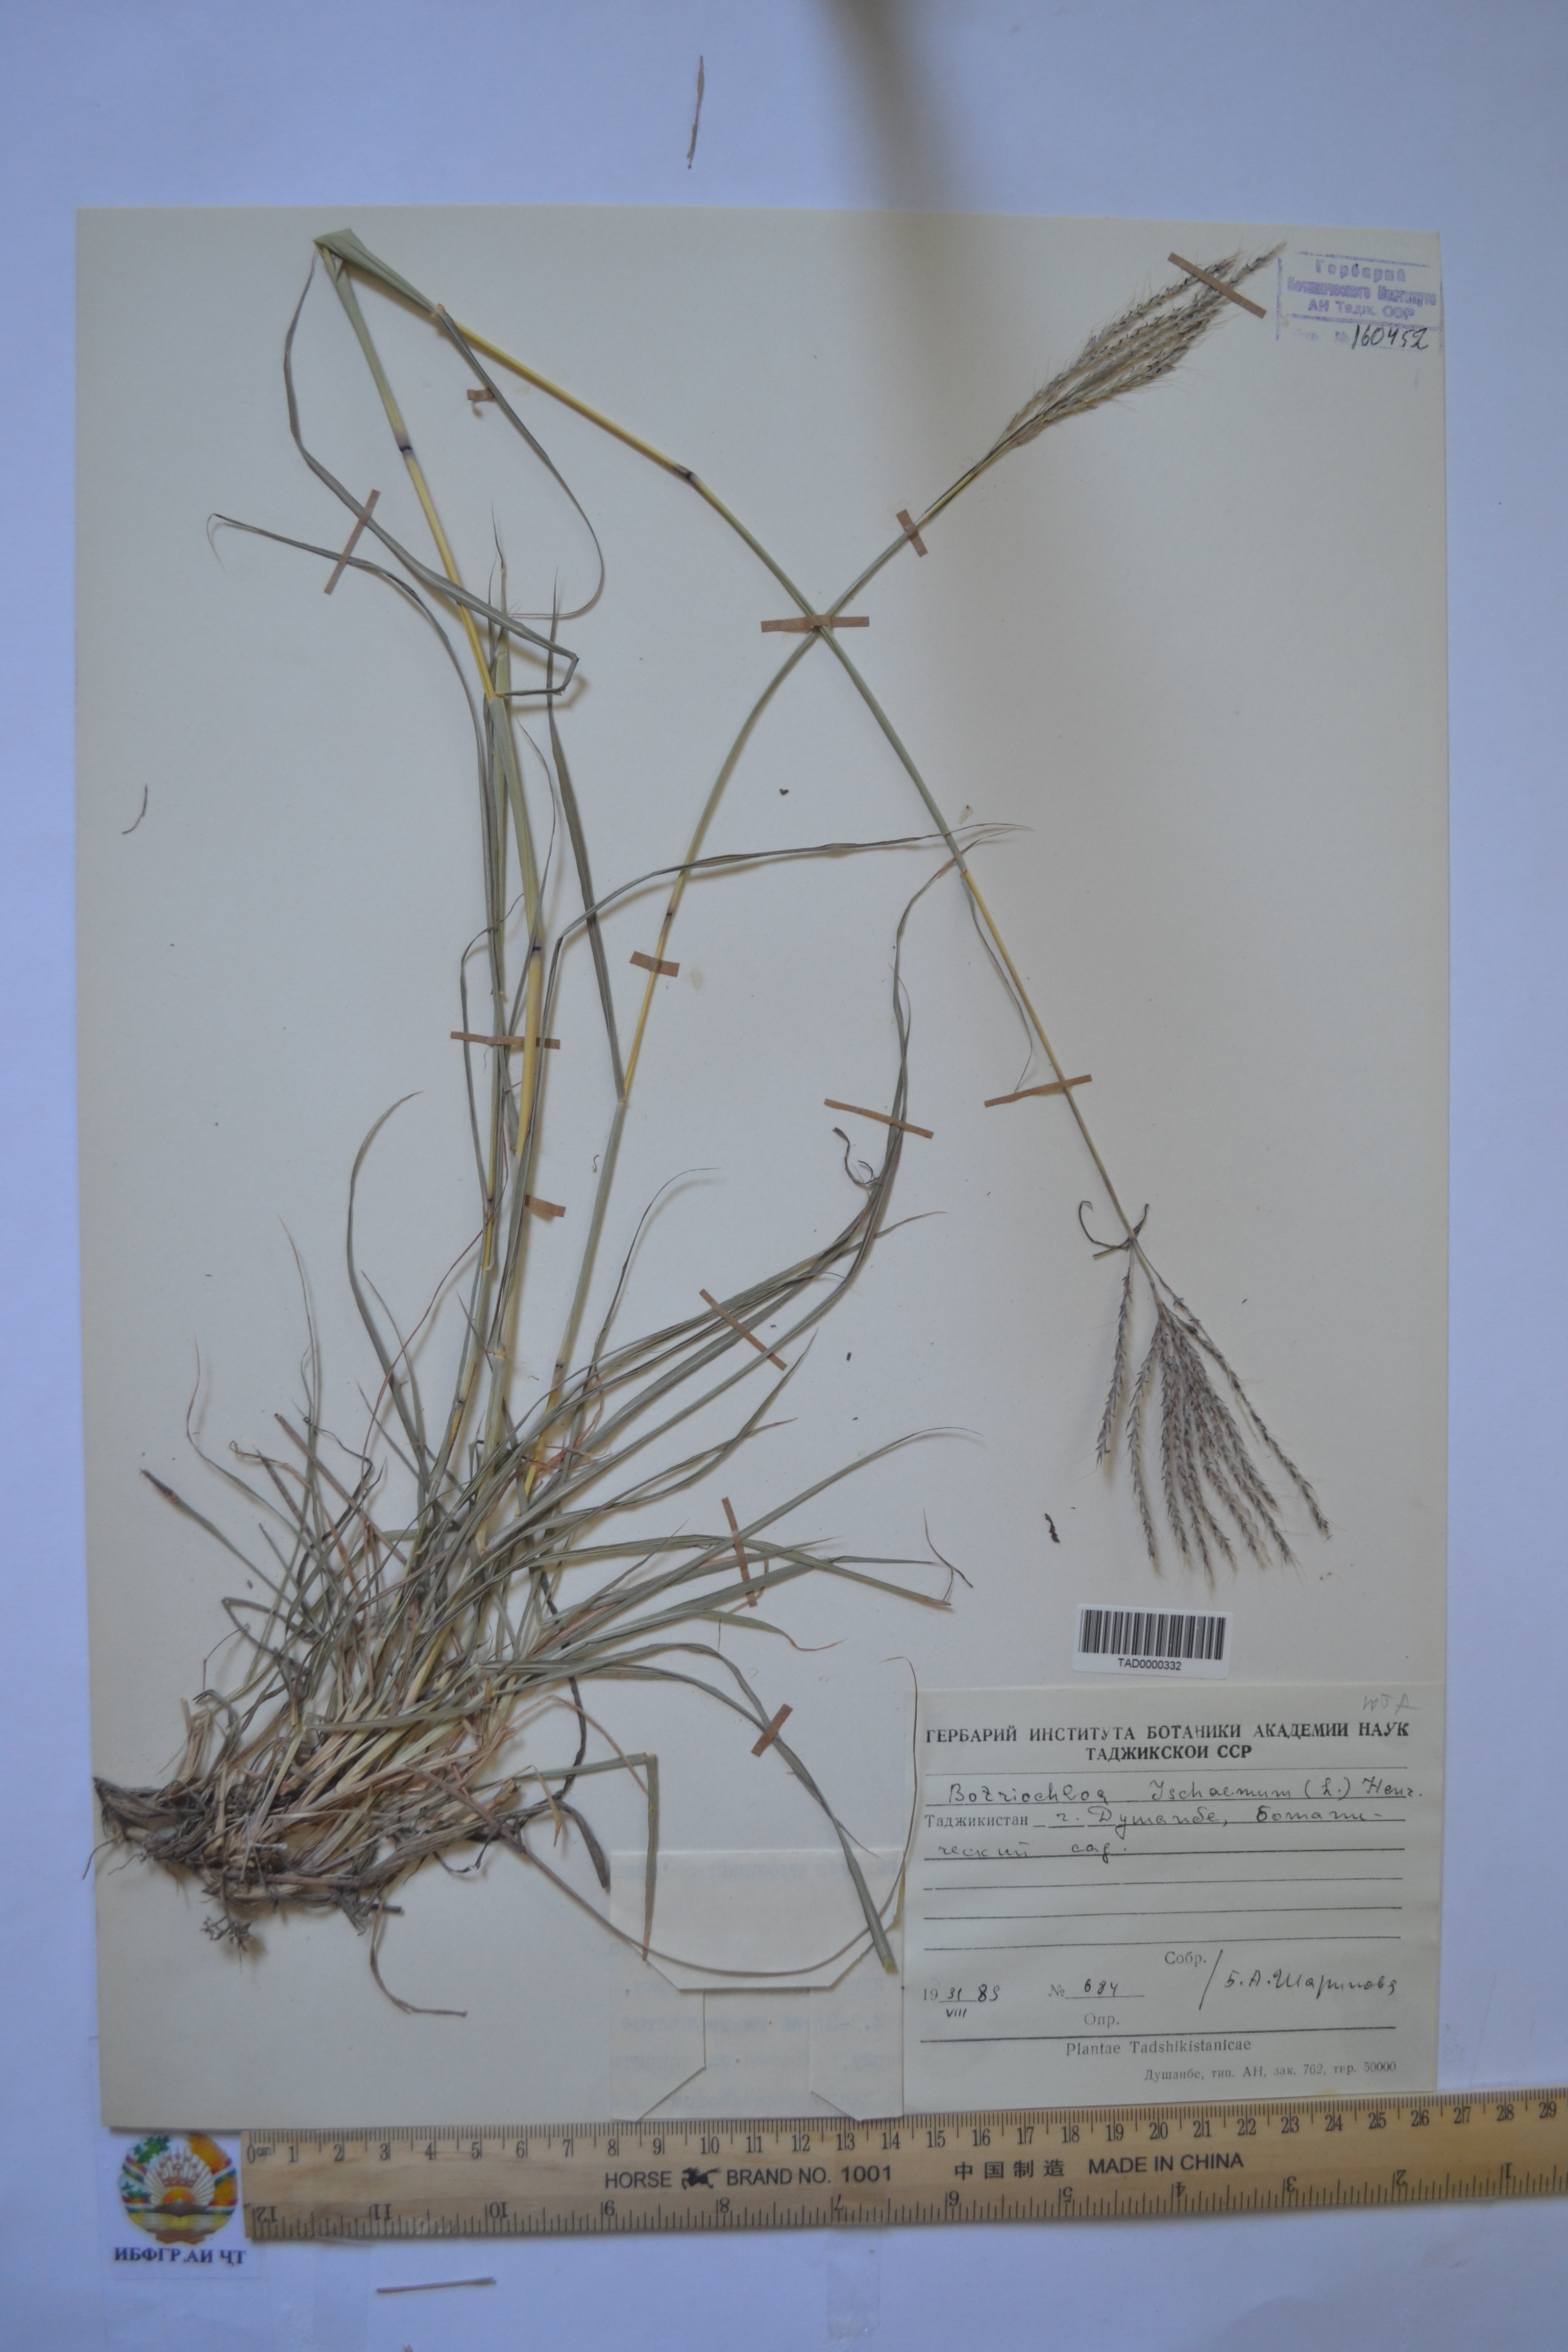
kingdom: Plantae
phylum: Tracheophyta
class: Liliopsida
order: Poales
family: Poaceae
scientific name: Poaceae
